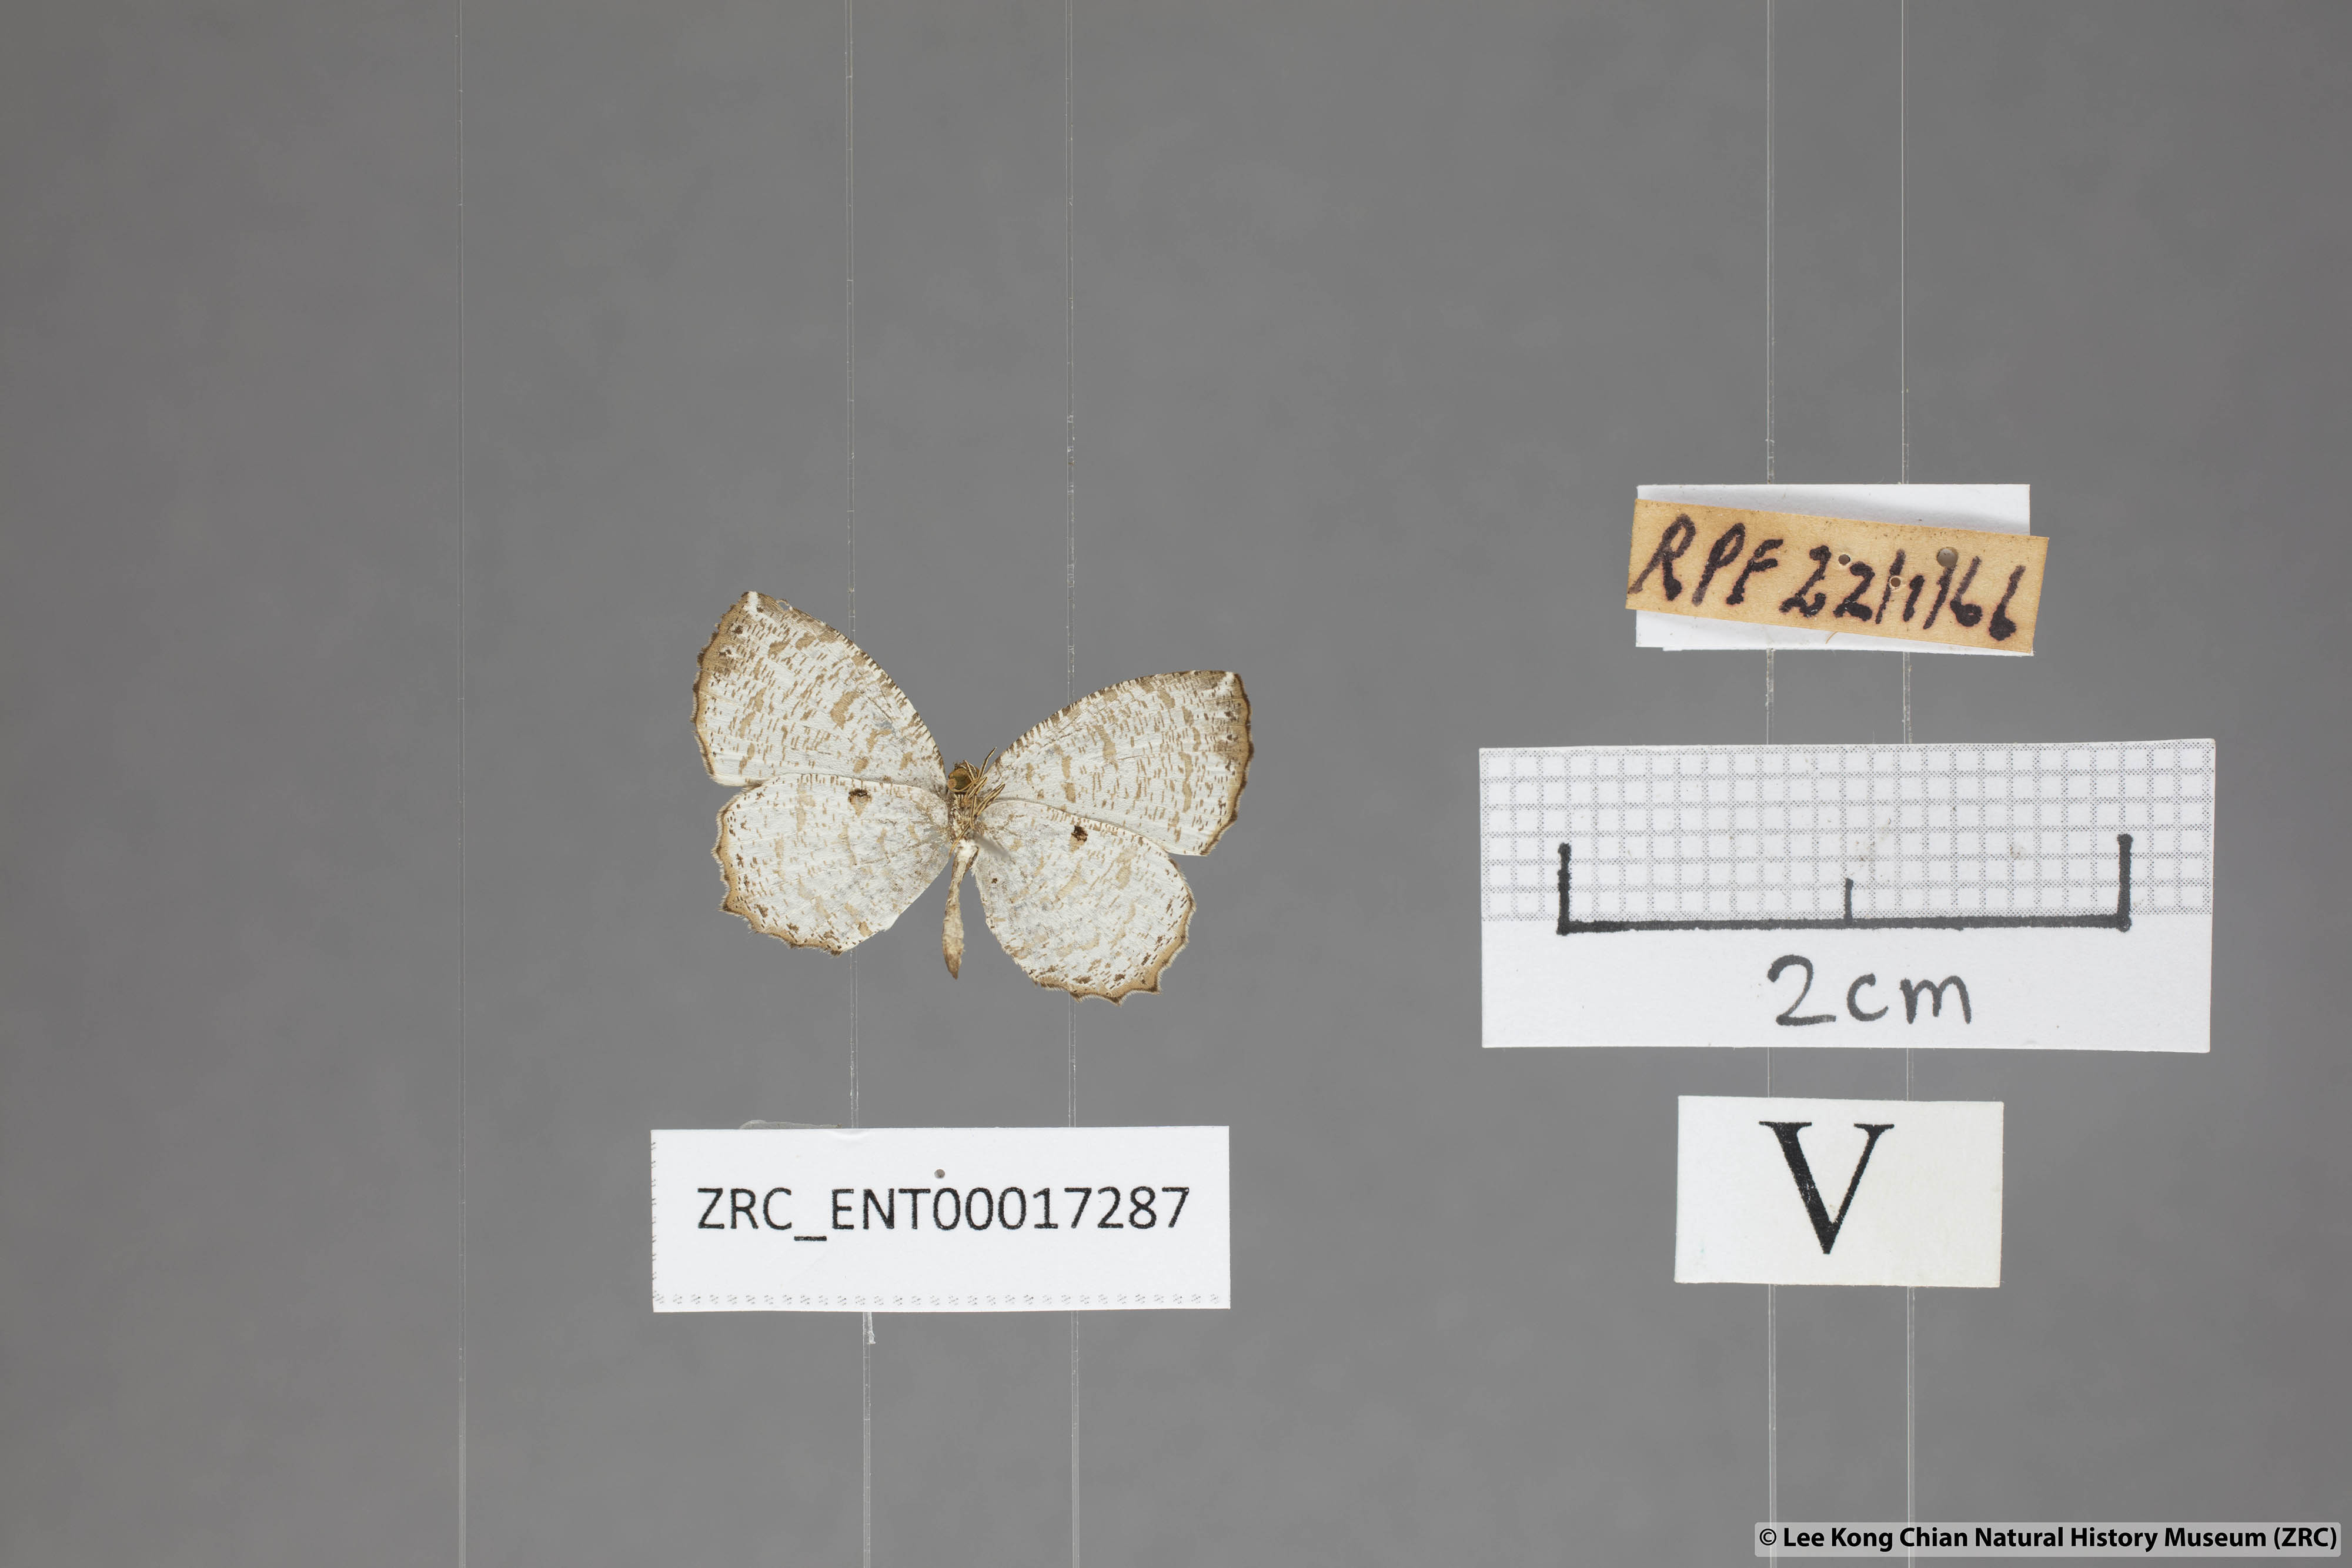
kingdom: Animalia
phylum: Arthropoda
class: Insecta
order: Lepidoptera
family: Lycaenidae
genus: Allotinus
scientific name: Allotinus substrigosa
